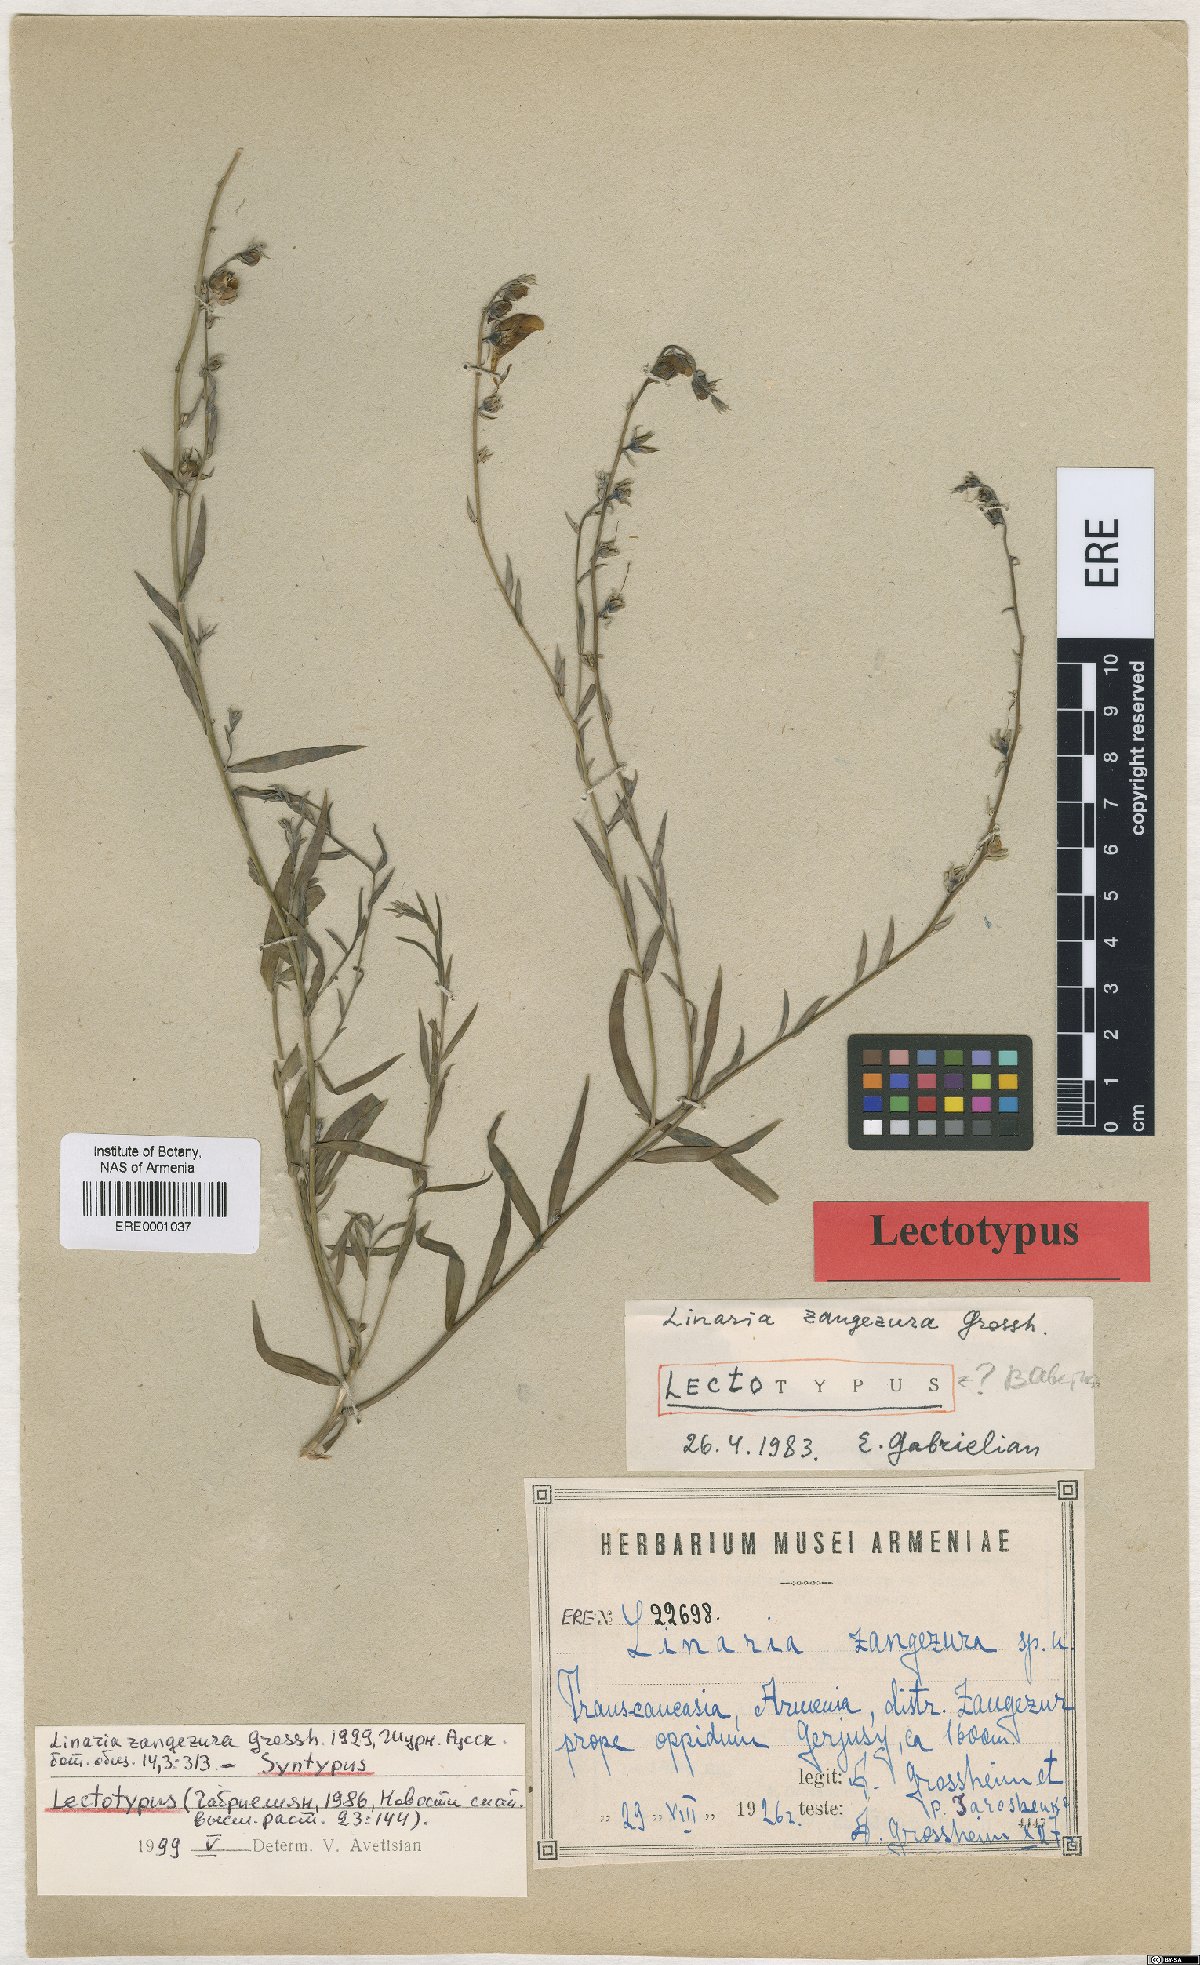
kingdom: Plantae
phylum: Tracheophyta
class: Magnoliopsida
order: Lamiales
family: Plantaginaceae
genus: Linaria
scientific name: Linaria dalmatica
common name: Dalmatian toadflax
